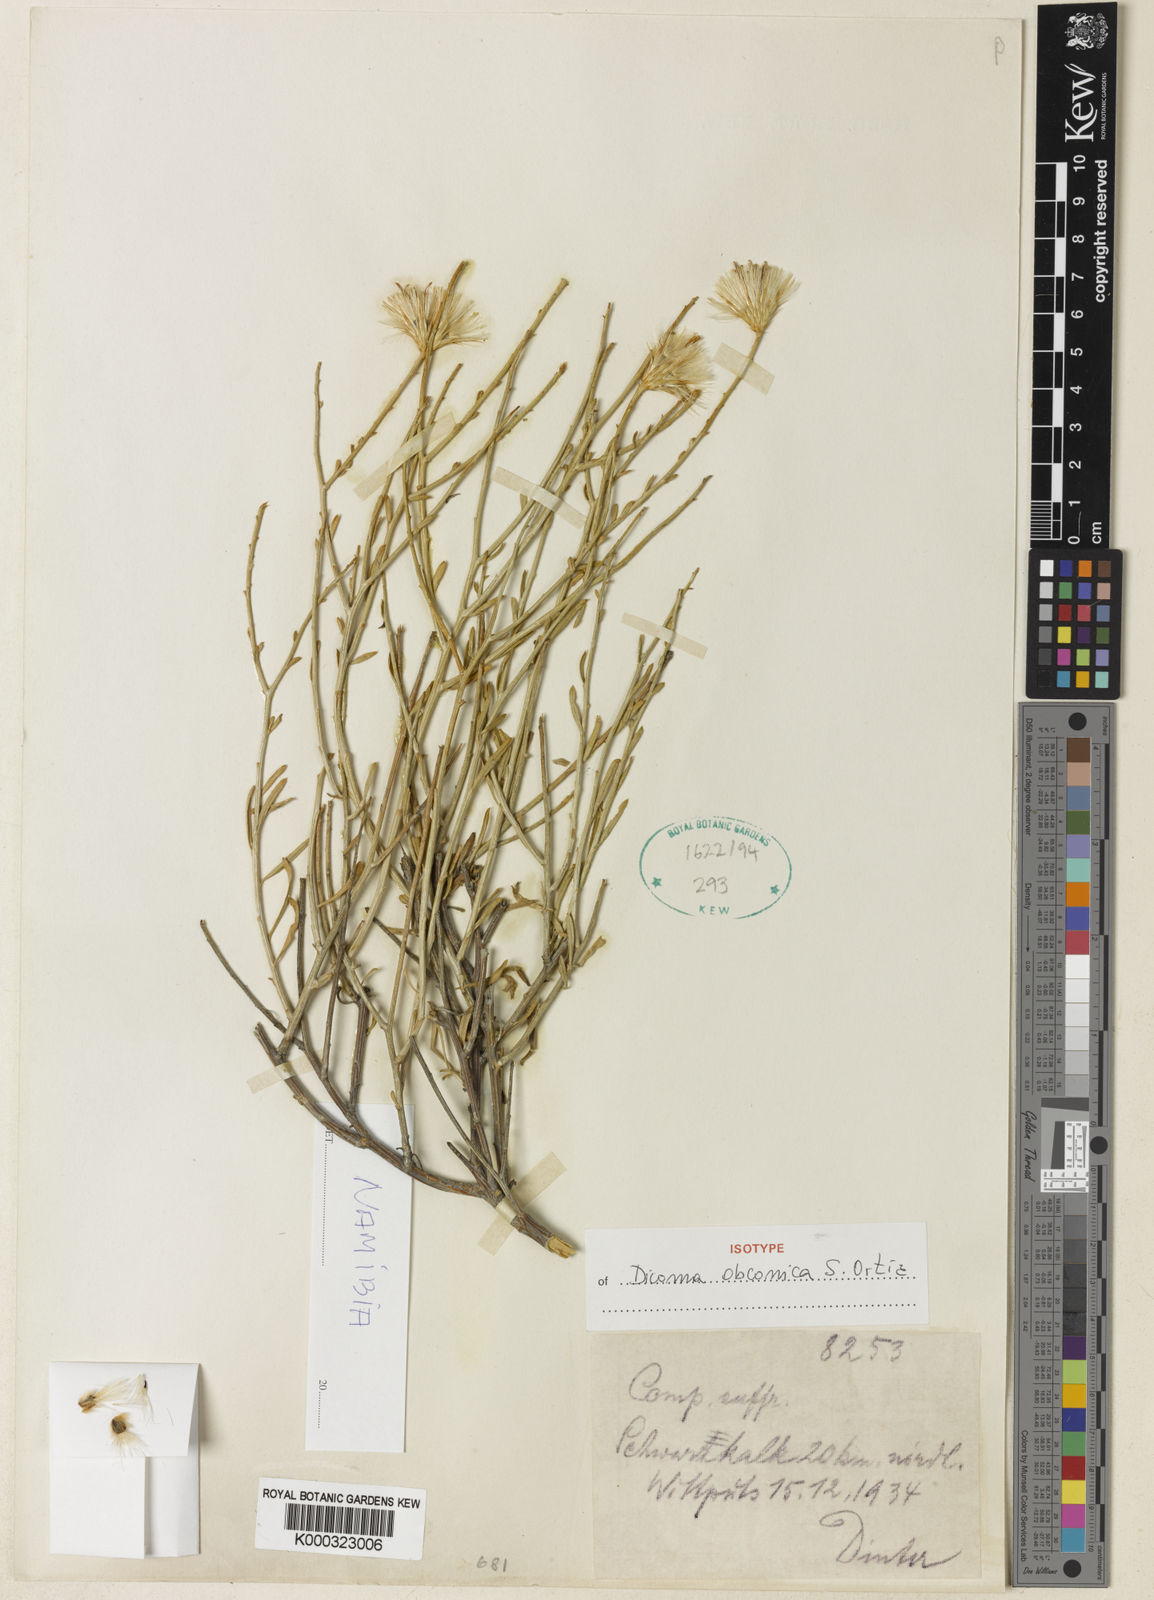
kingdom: Plantae
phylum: Tracheophyta
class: Magnoliopsida
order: Asterales
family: Asteraceae
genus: Dicoma
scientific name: Dicoma obconica
